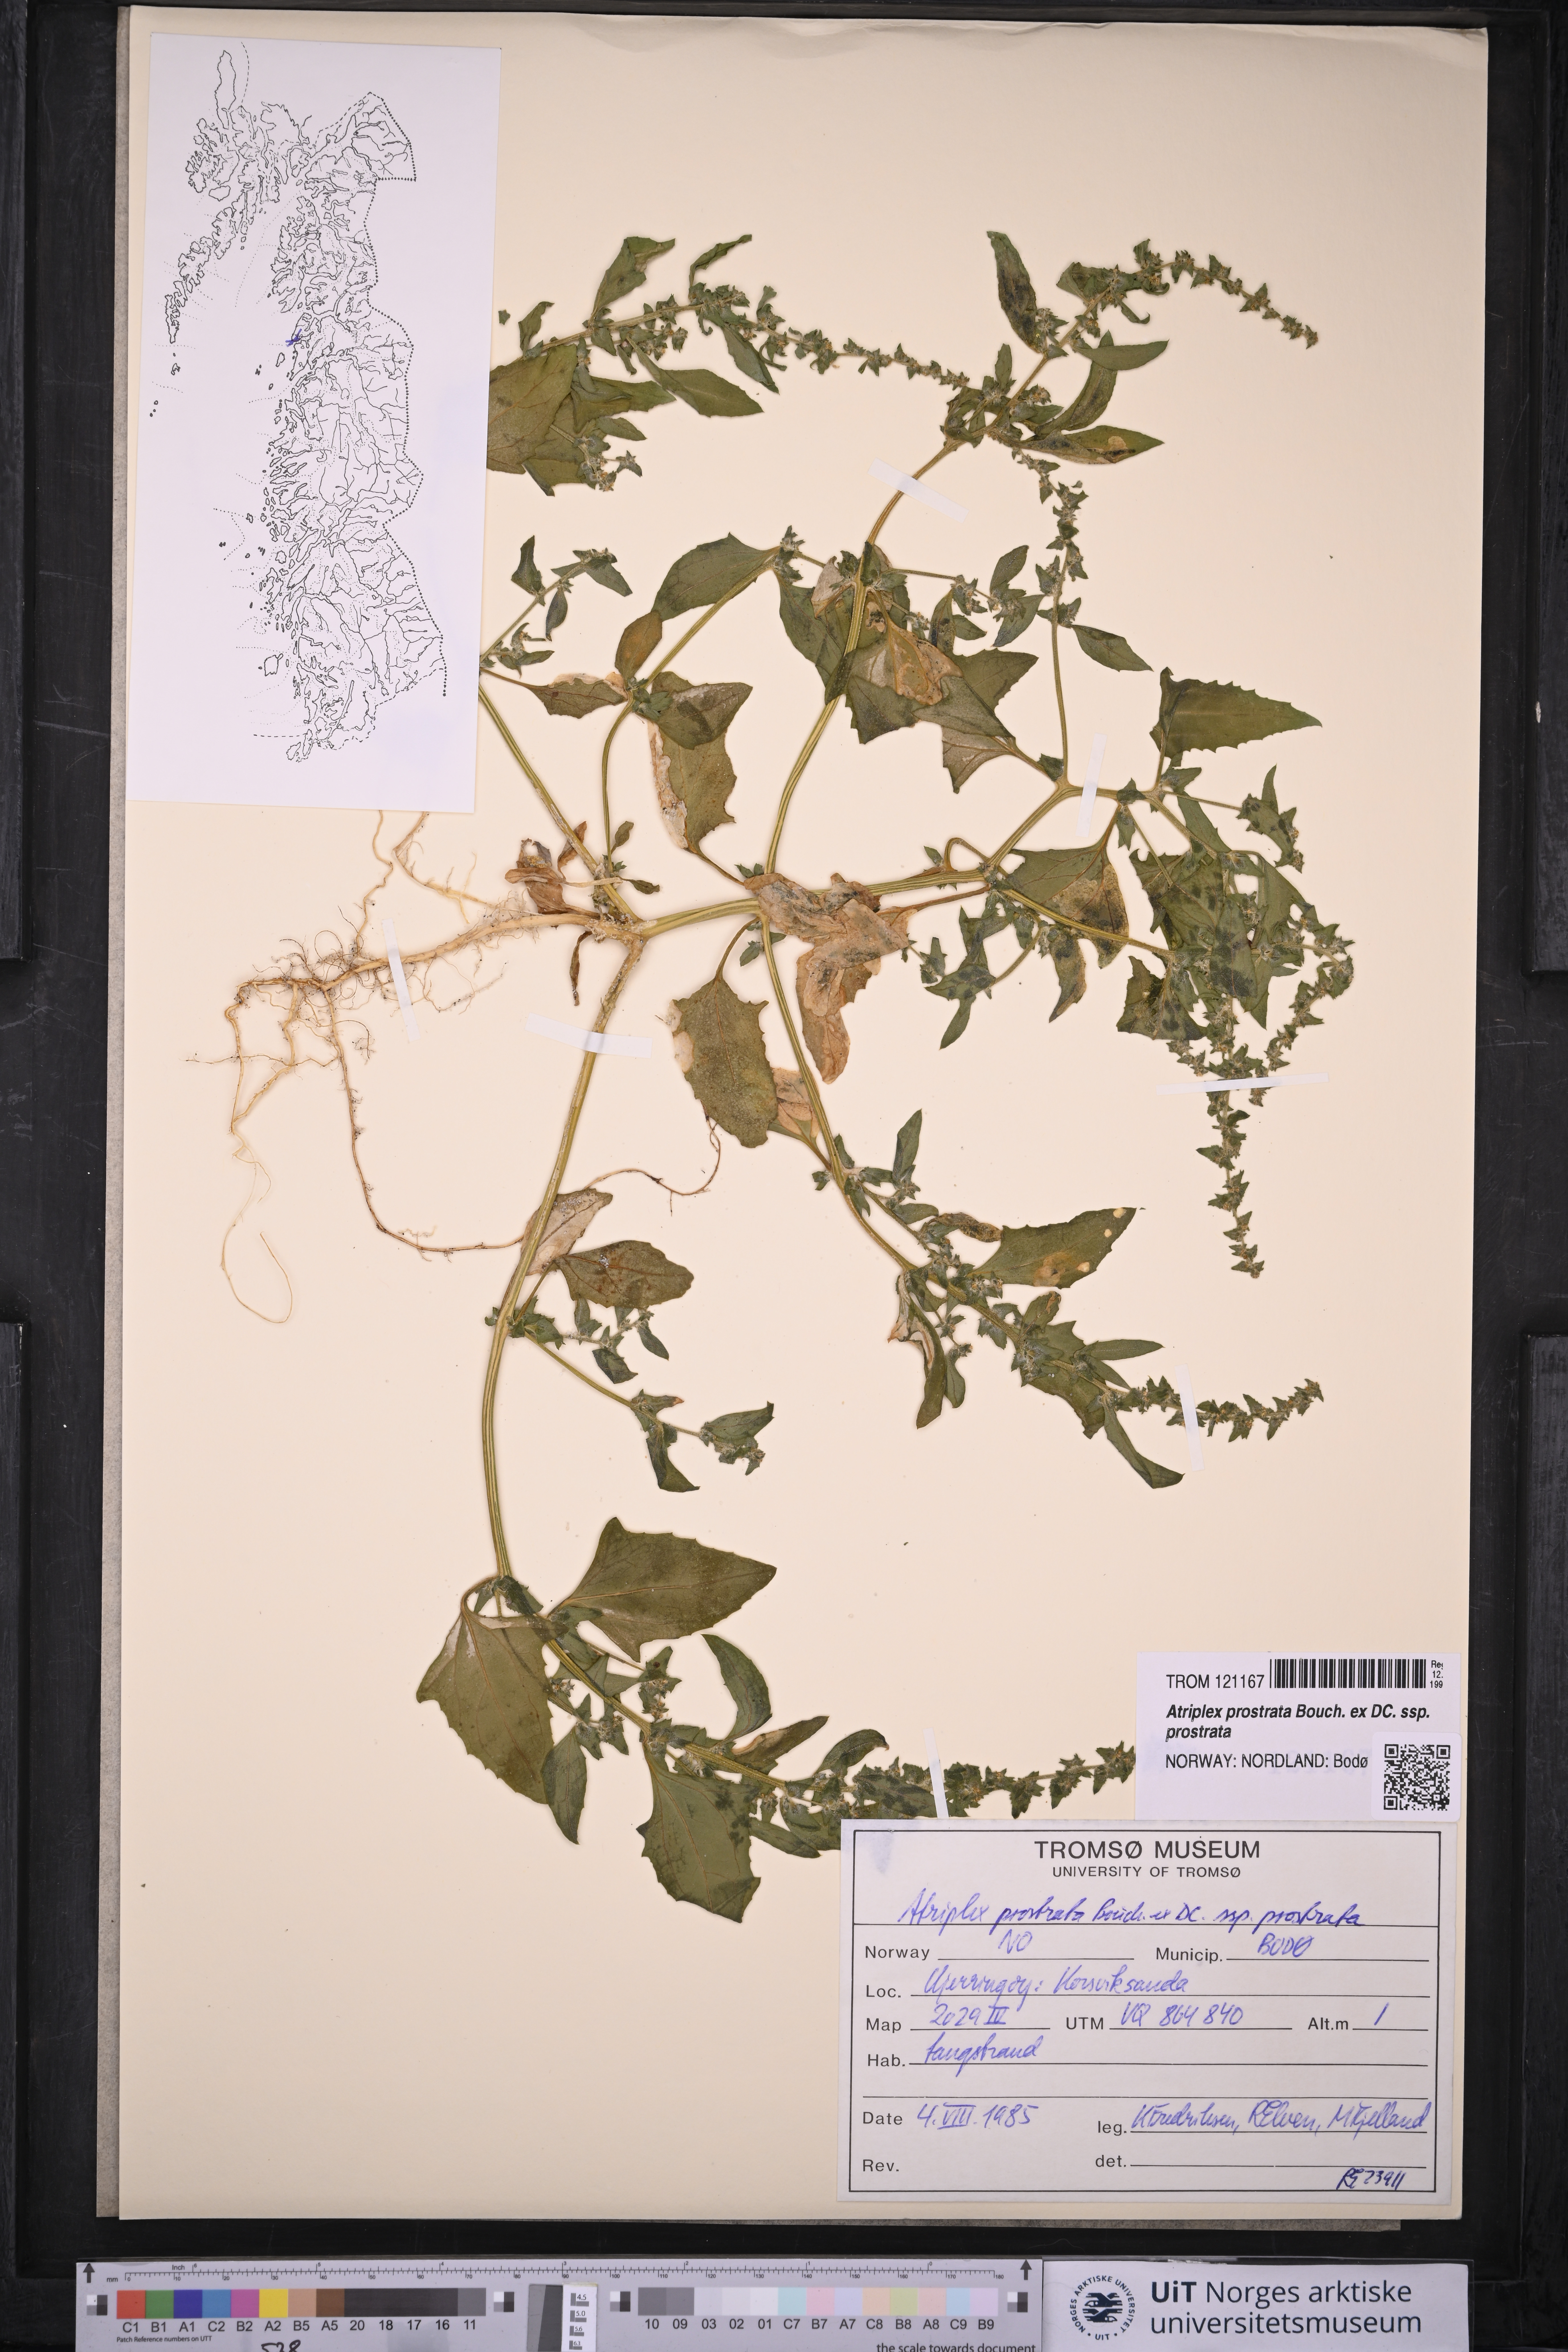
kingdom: Plantae
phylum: Tracheophyta
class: Magnoliopsida
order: Caryophyllales
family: Amaranthaceae
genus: Atriplex
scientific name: Atriplex prostrata
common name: Spear-leaved orache
